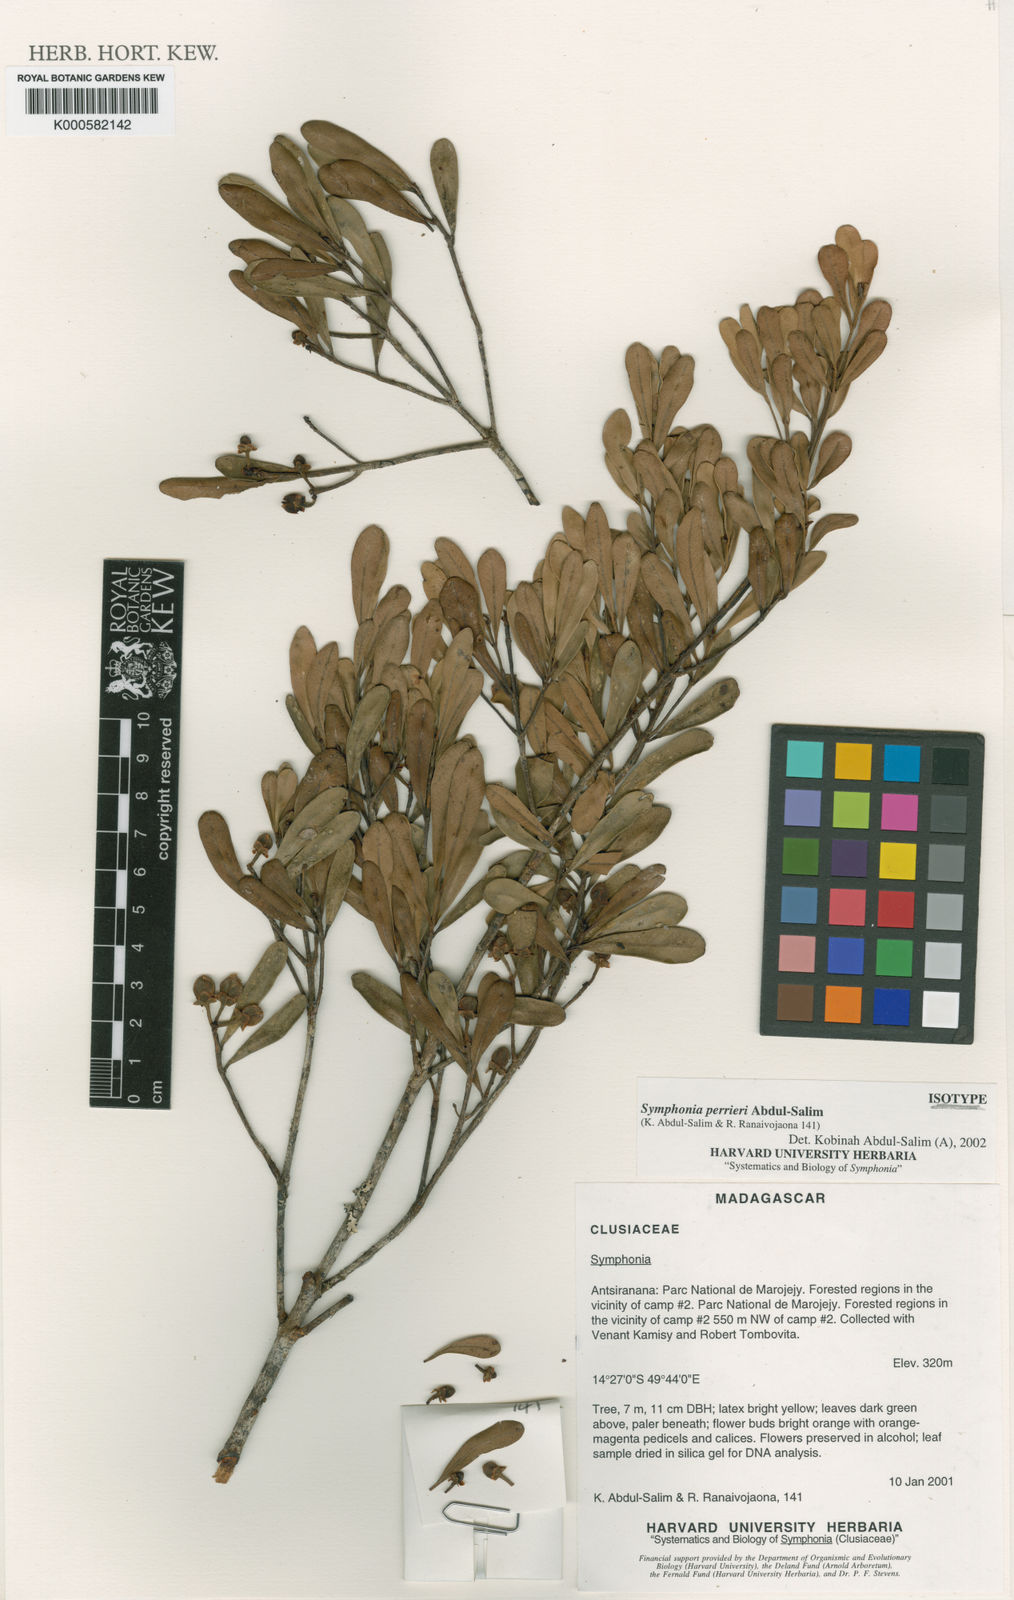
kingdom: Plantae
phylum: Tracheophyta
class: Magnoliopsida
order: Malpighiales
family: Clusiaceae
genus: Symphonia
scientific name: Symphonia
